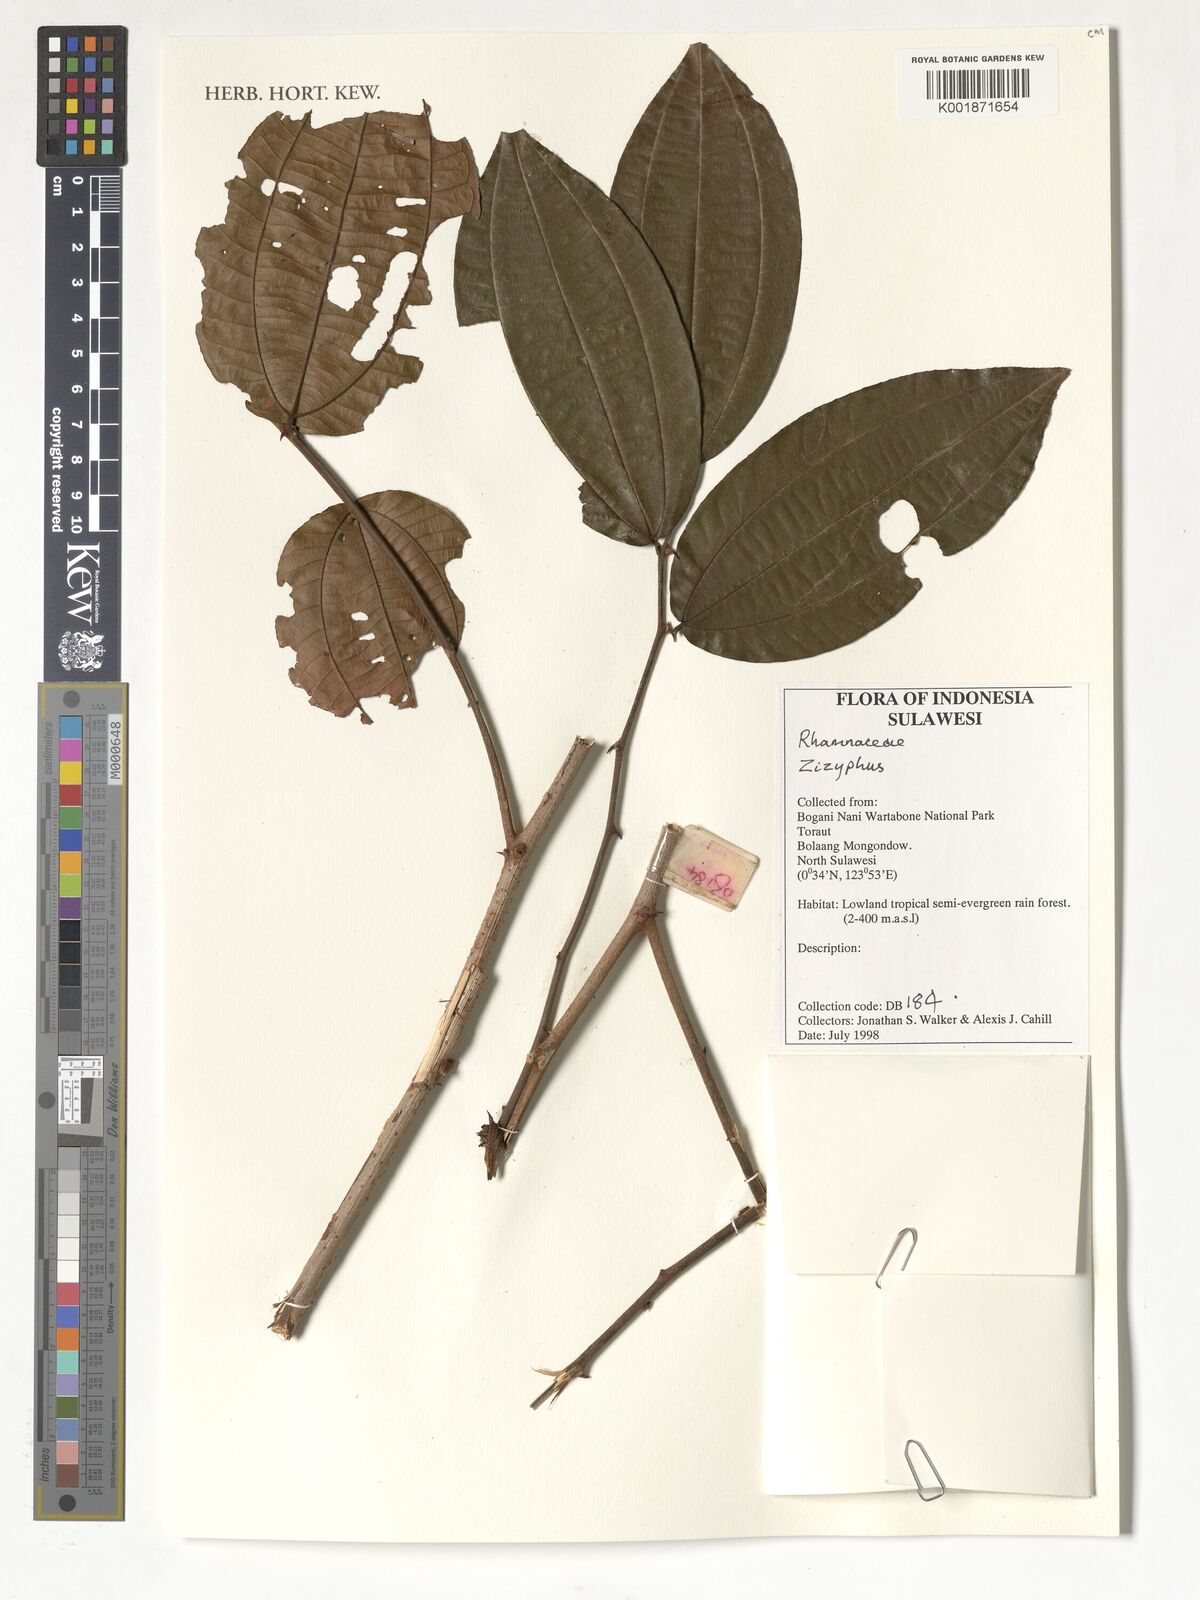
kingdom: Plantae
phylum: Tracheophyta
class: Magnoliopsida
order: Rosales
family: Rhamnaceae
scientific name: Rhamnaceae
